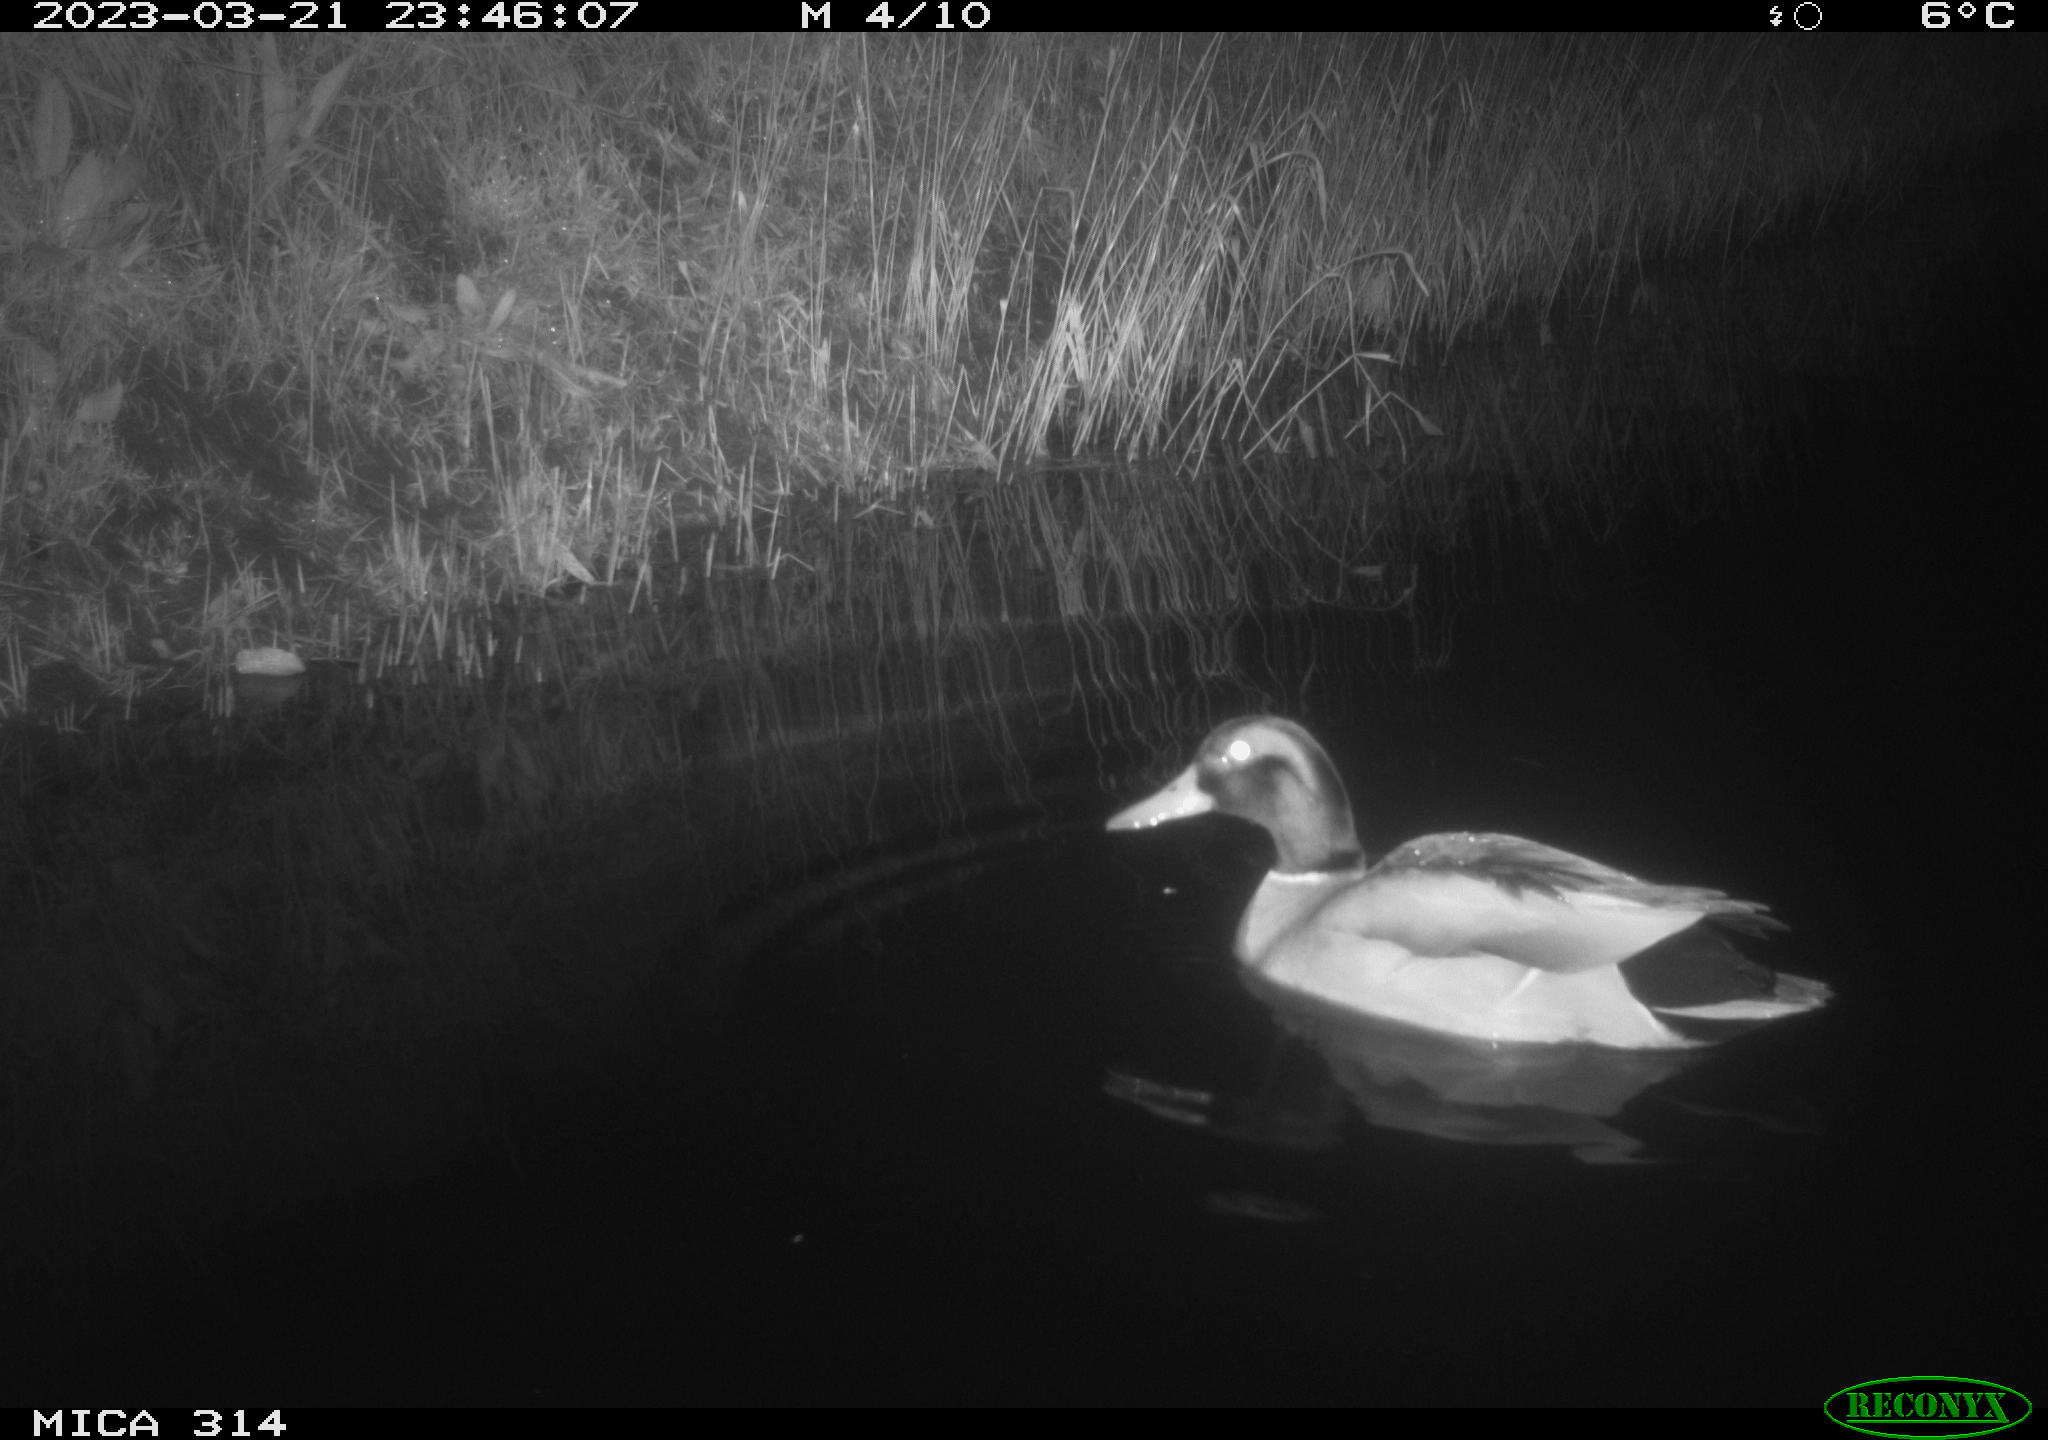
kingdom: Animalia
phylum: Chordata
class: Aves
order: Anseriformes
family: Anatidae
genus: Anas
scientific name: Anas
